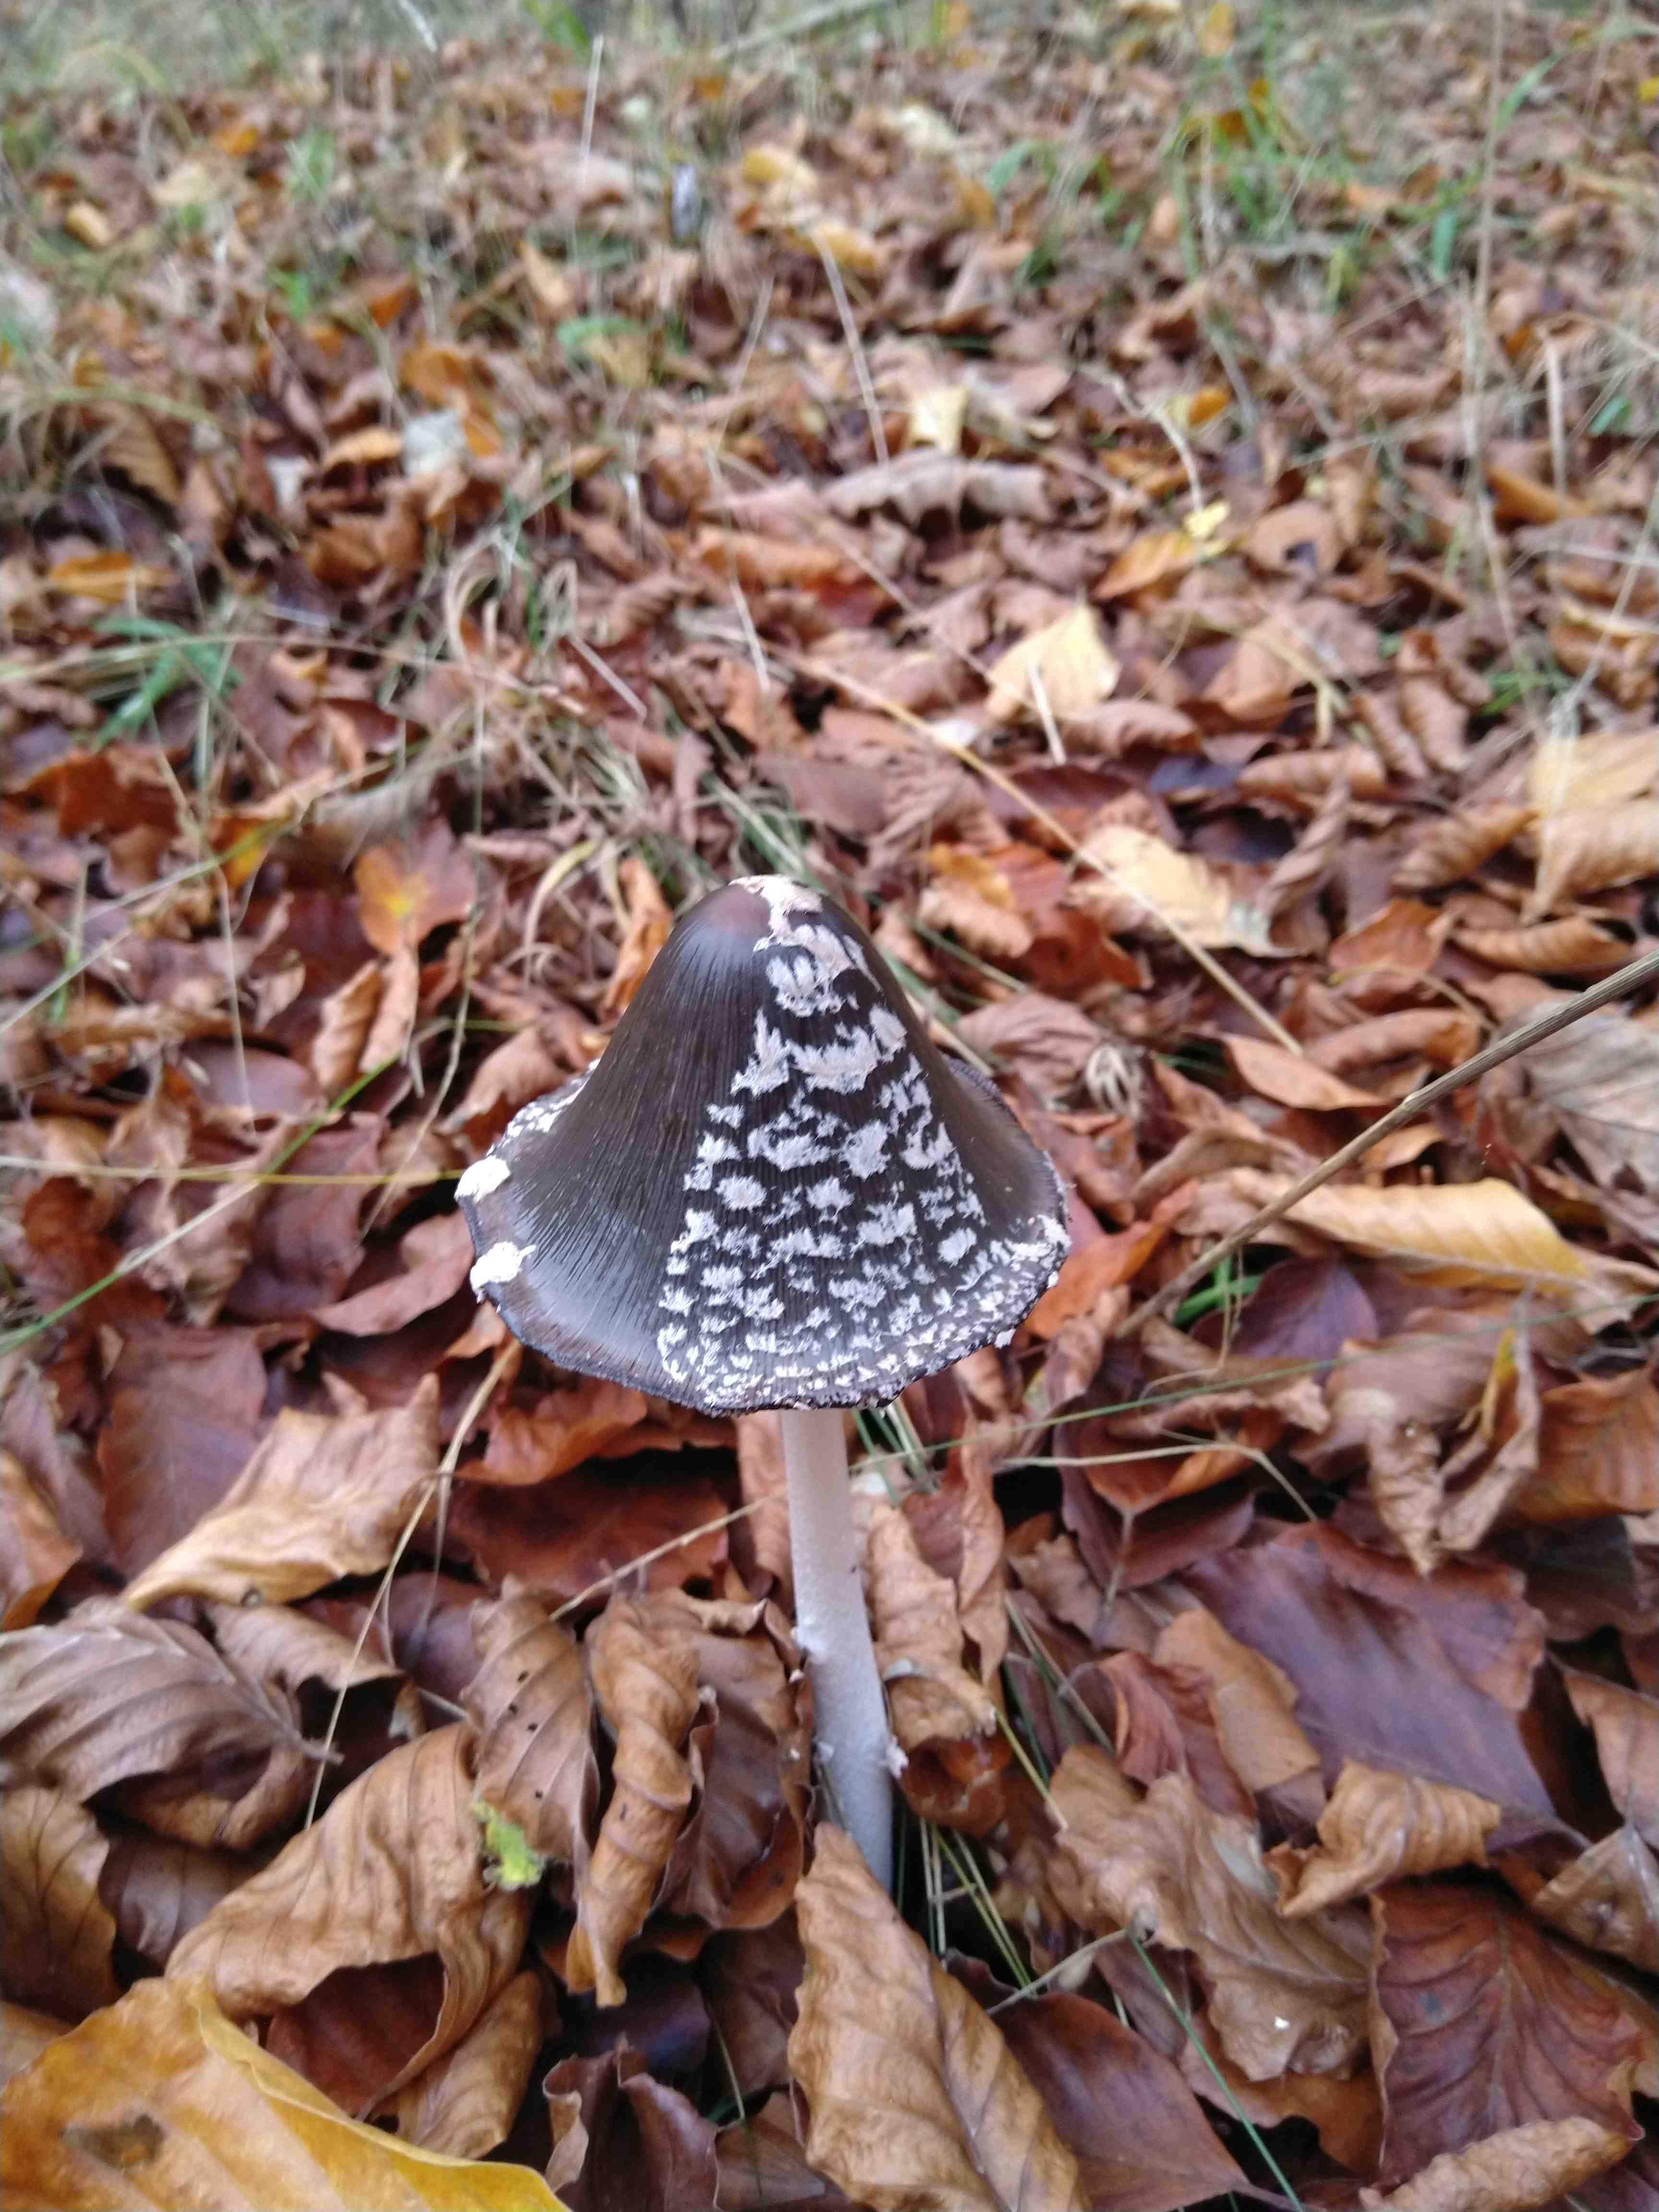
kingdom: Fungi
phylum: Basidiomycota
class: Agaricomycetes
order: Agaricales
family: Psathyrellaceae
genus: Coprinopsis
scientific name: Coprinopsis picacea
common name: skade-blækhat
